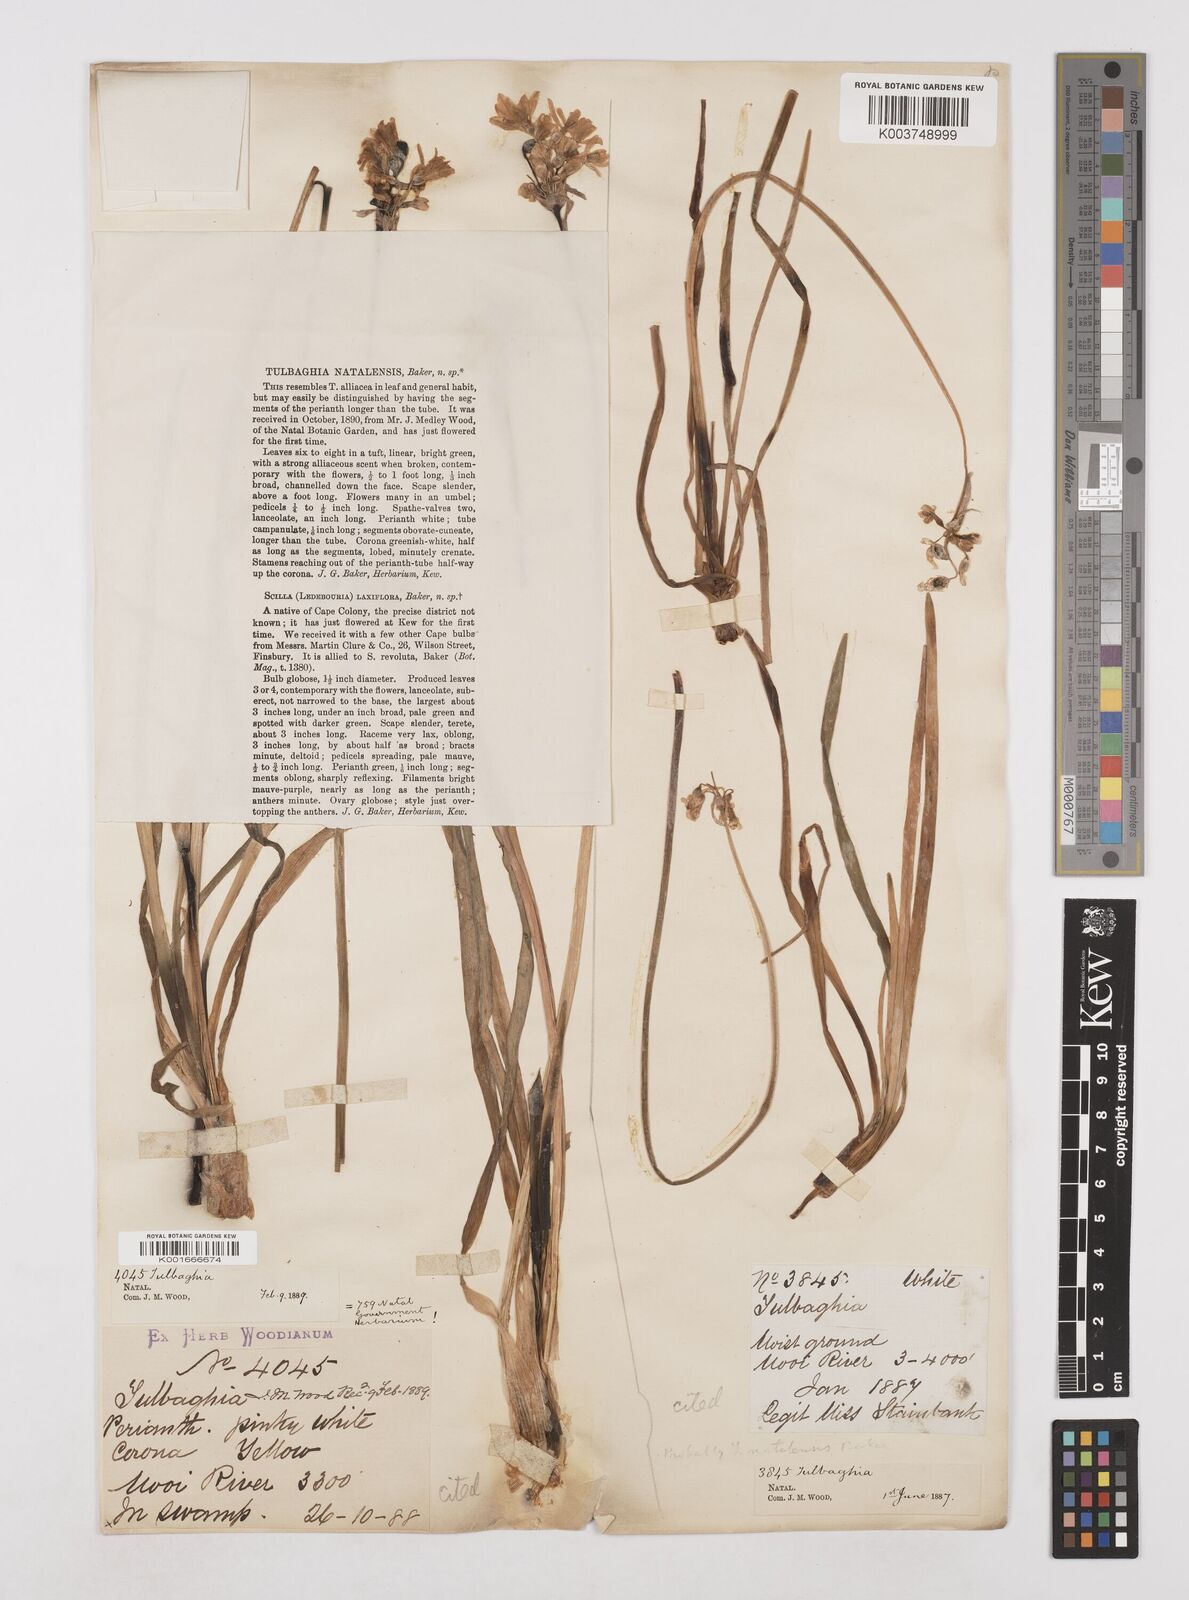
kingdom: Plantae
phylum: Tracheophyta
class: Liliopsida
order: Asparagales
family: Amaryllidaceae
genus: Tulbaghia
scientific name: Tulbaghia natalensis
